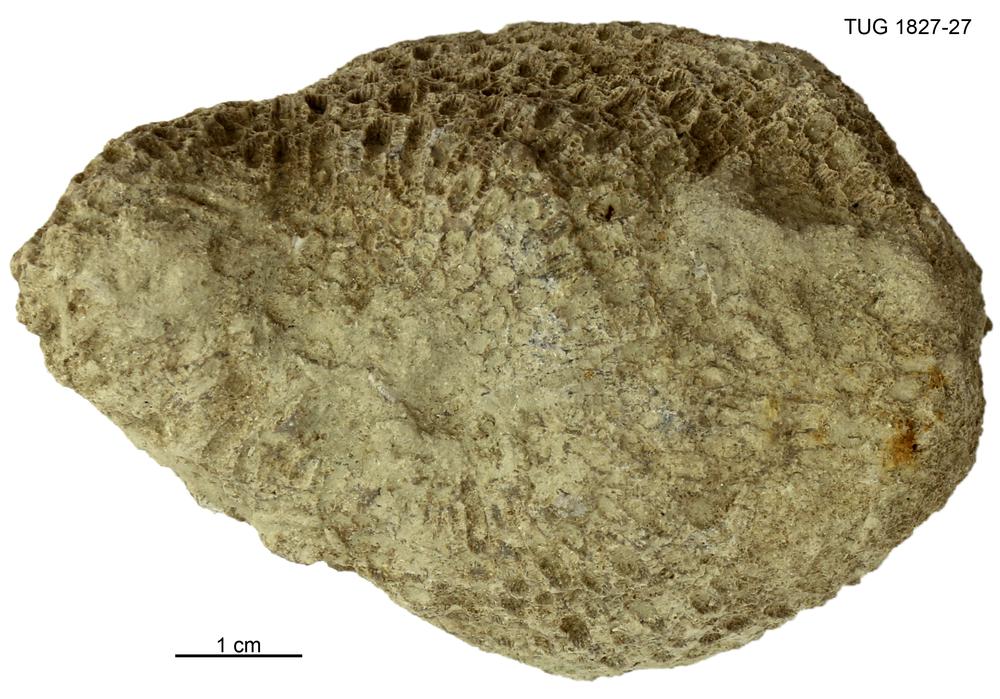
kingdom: Animalia
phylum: Xenacoelomorpha
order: Acoela
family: Proporidae
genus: Propora
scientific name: Propora
